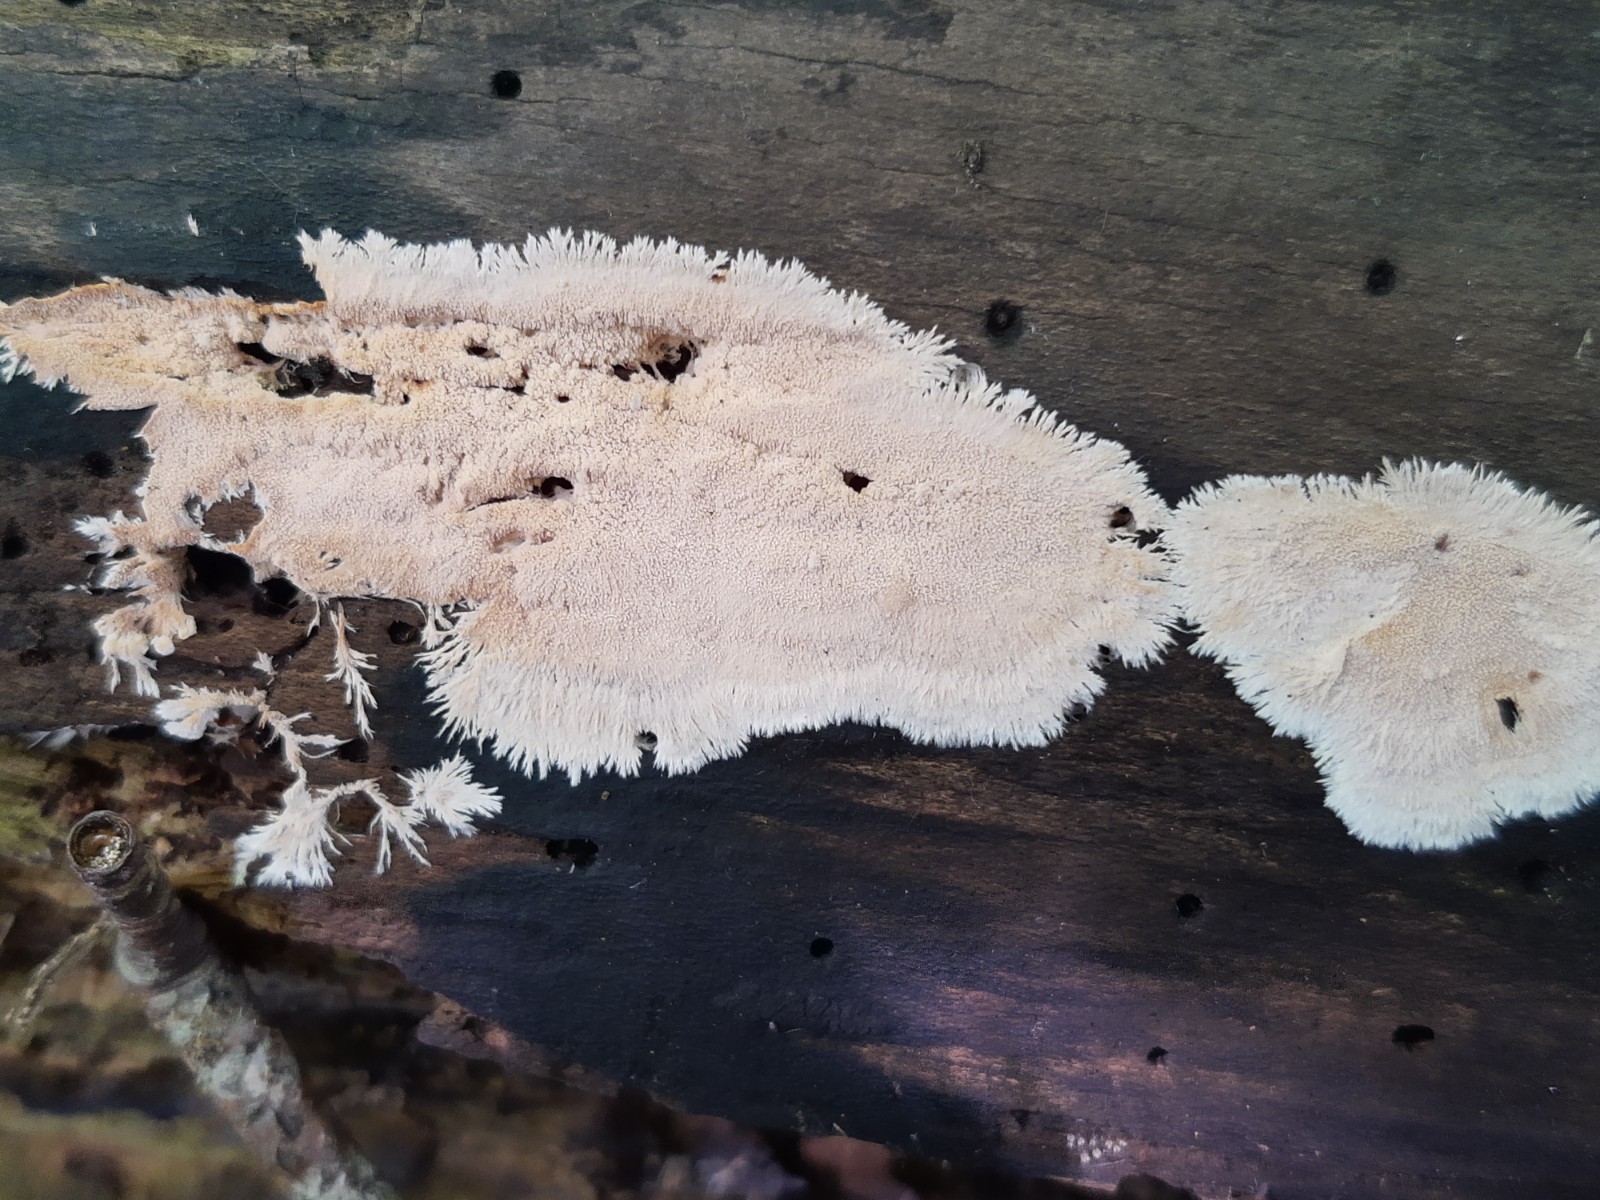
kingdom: Fungi
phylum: Basidiomycota
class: Agaricomycetes
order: Polyporales
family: Steccherinaceae
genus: Steccherinum
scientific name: Steccherinum fimbriatum
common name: trådet skønpig
